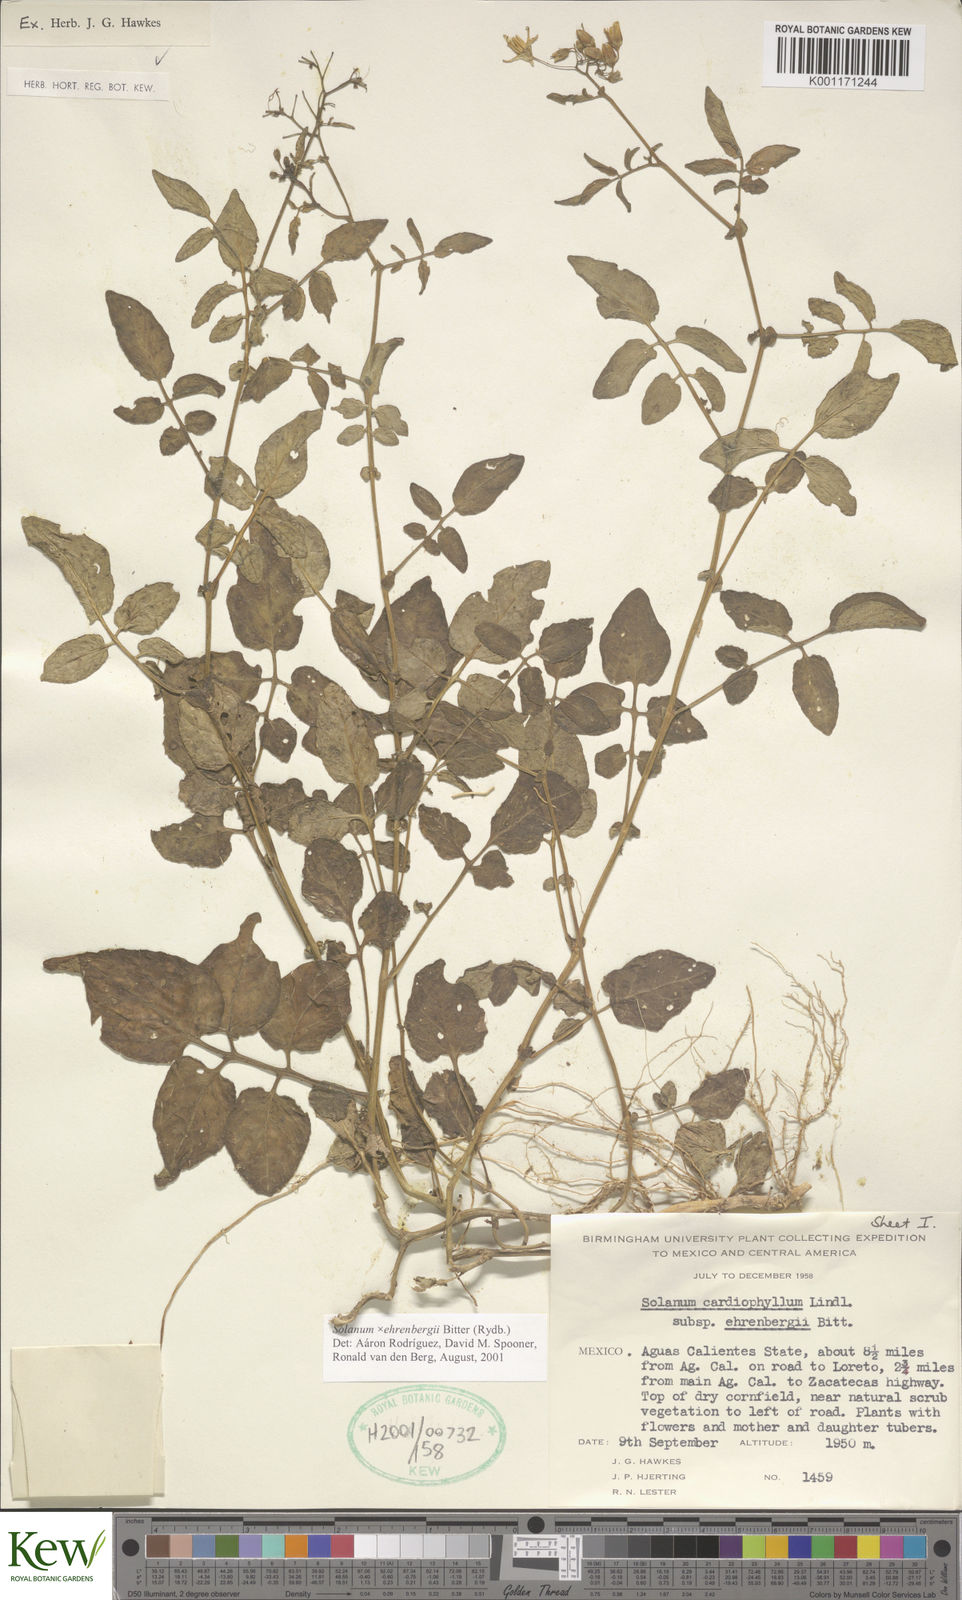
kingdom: Plantae
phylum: Tracheophyta
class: Magnoliopsida
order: Solanales
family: Solanaceae
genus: Solanum
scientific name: Solanum edinense
